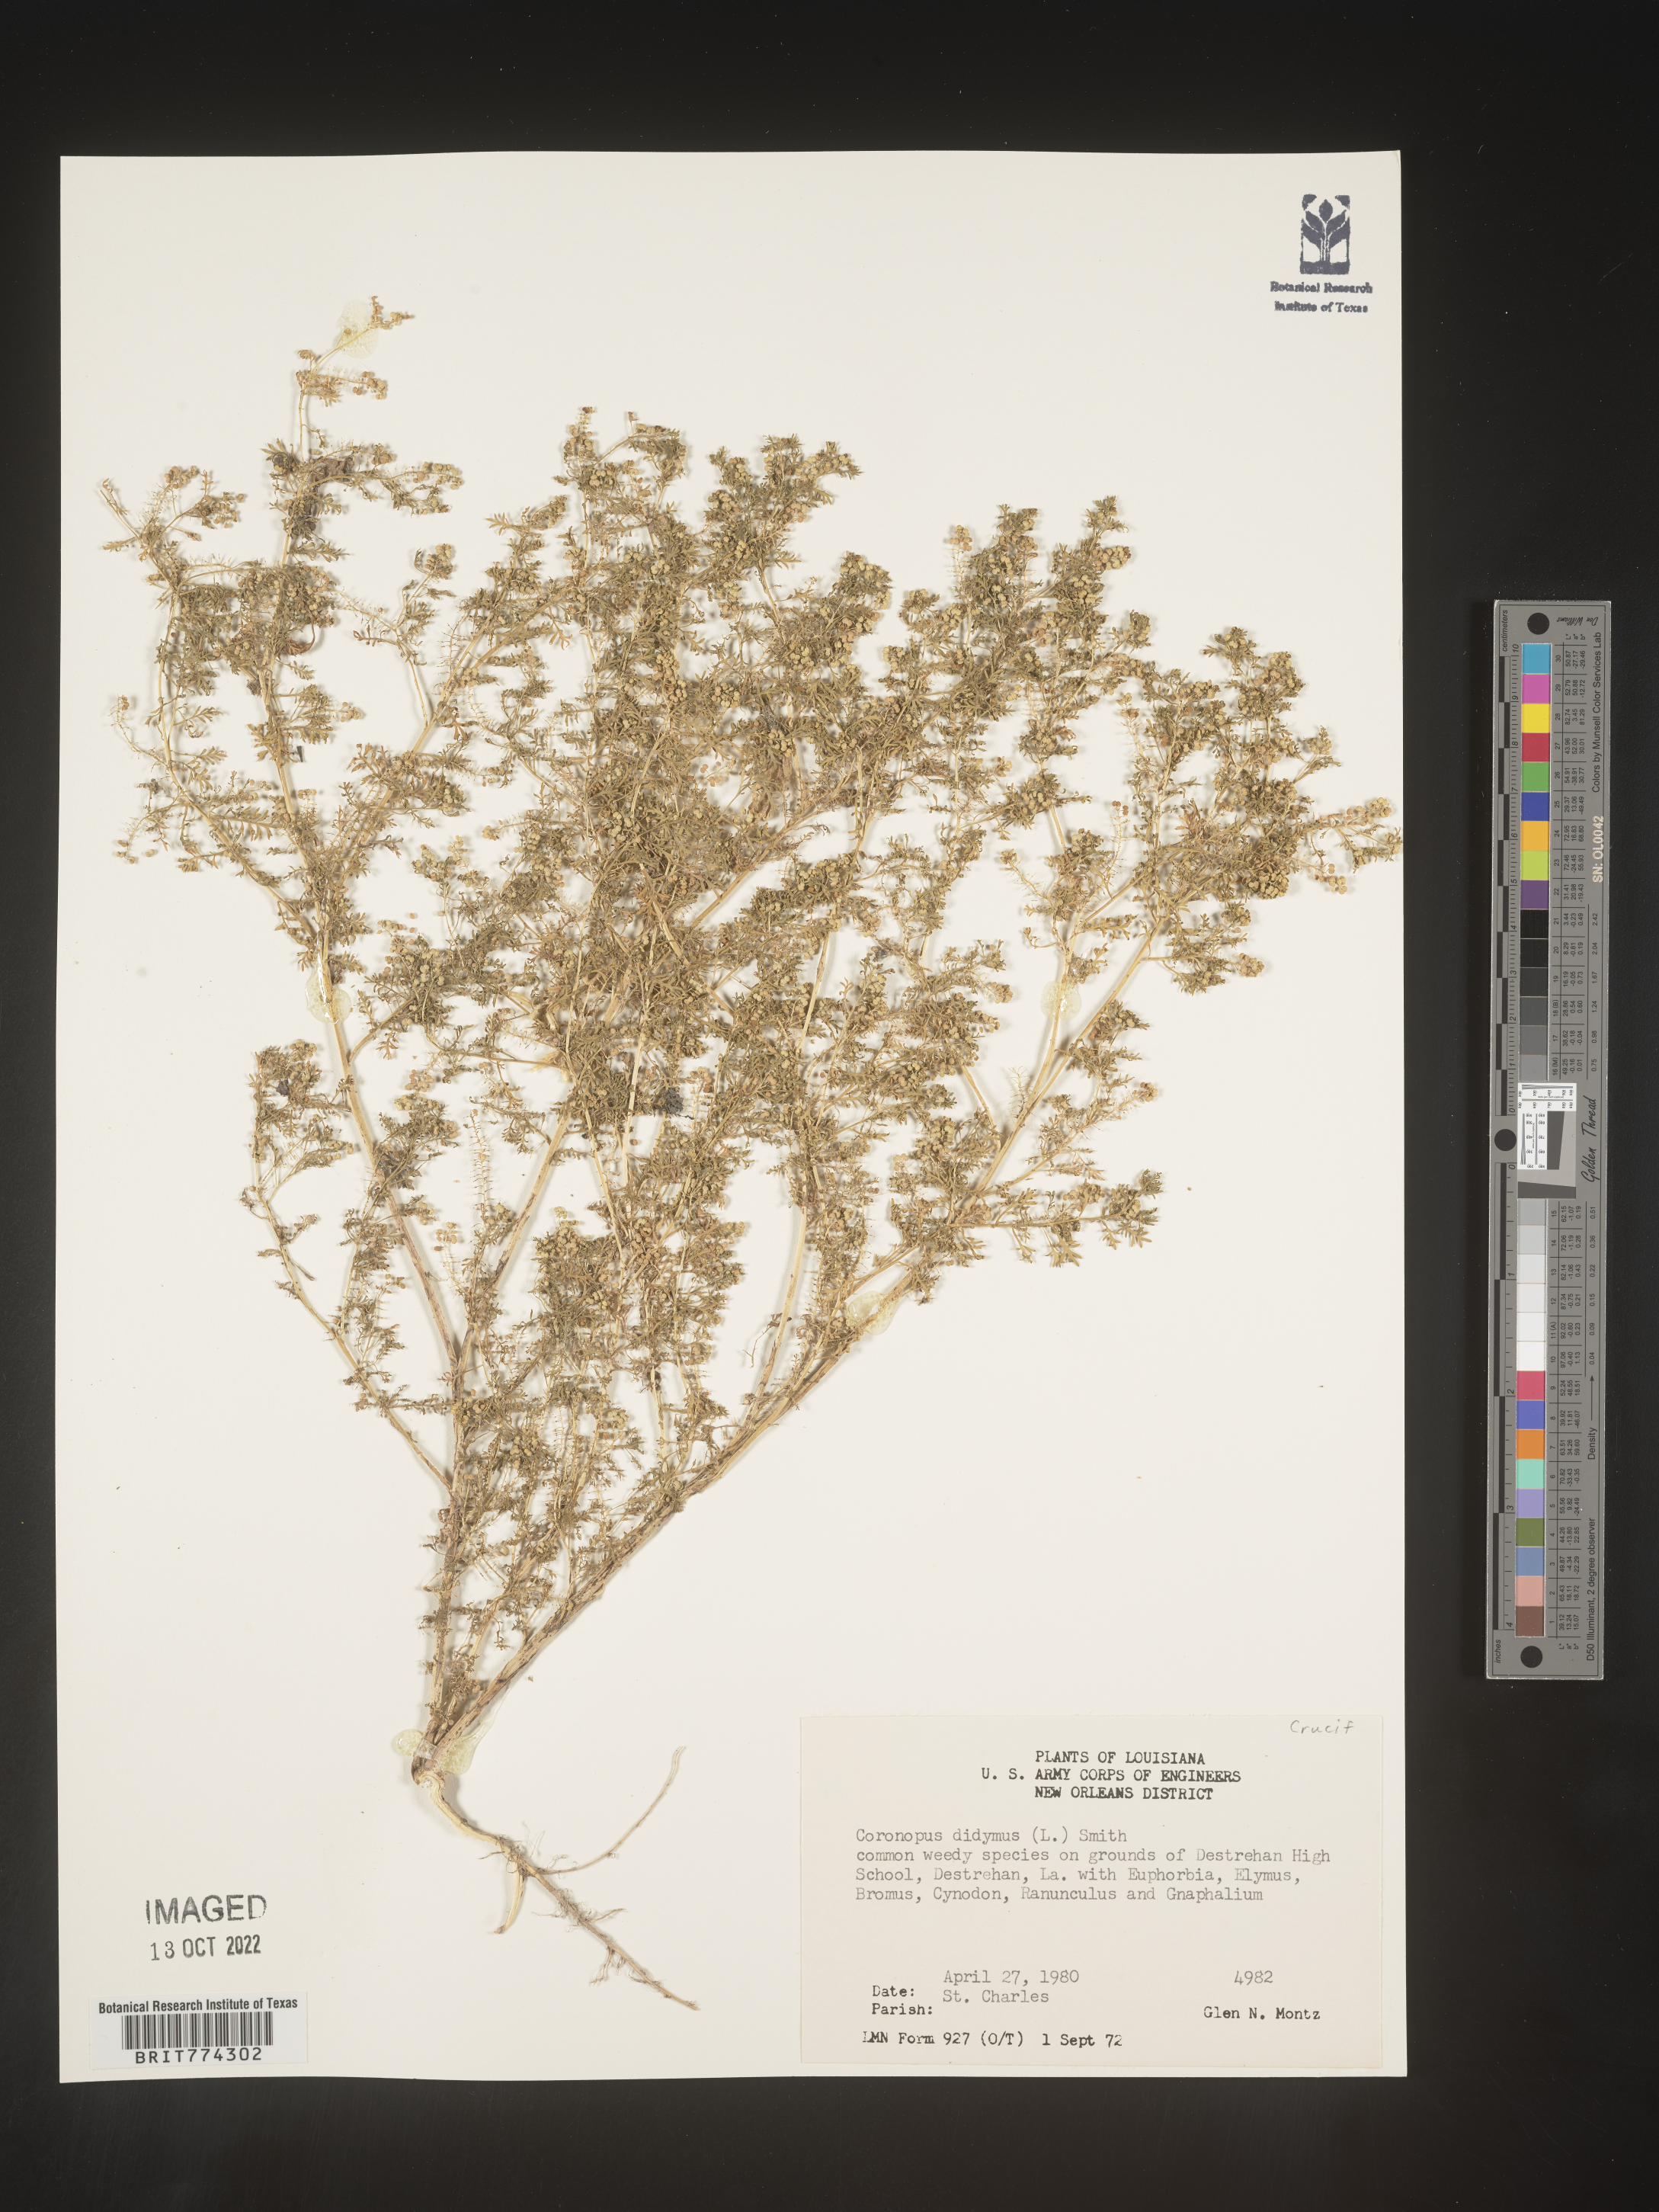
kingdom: Plantae
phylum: Tracheophyta
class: Magnoliopsida
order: Brassicales
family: Brassicaceae
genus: Coronopus
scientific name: Coronopus
